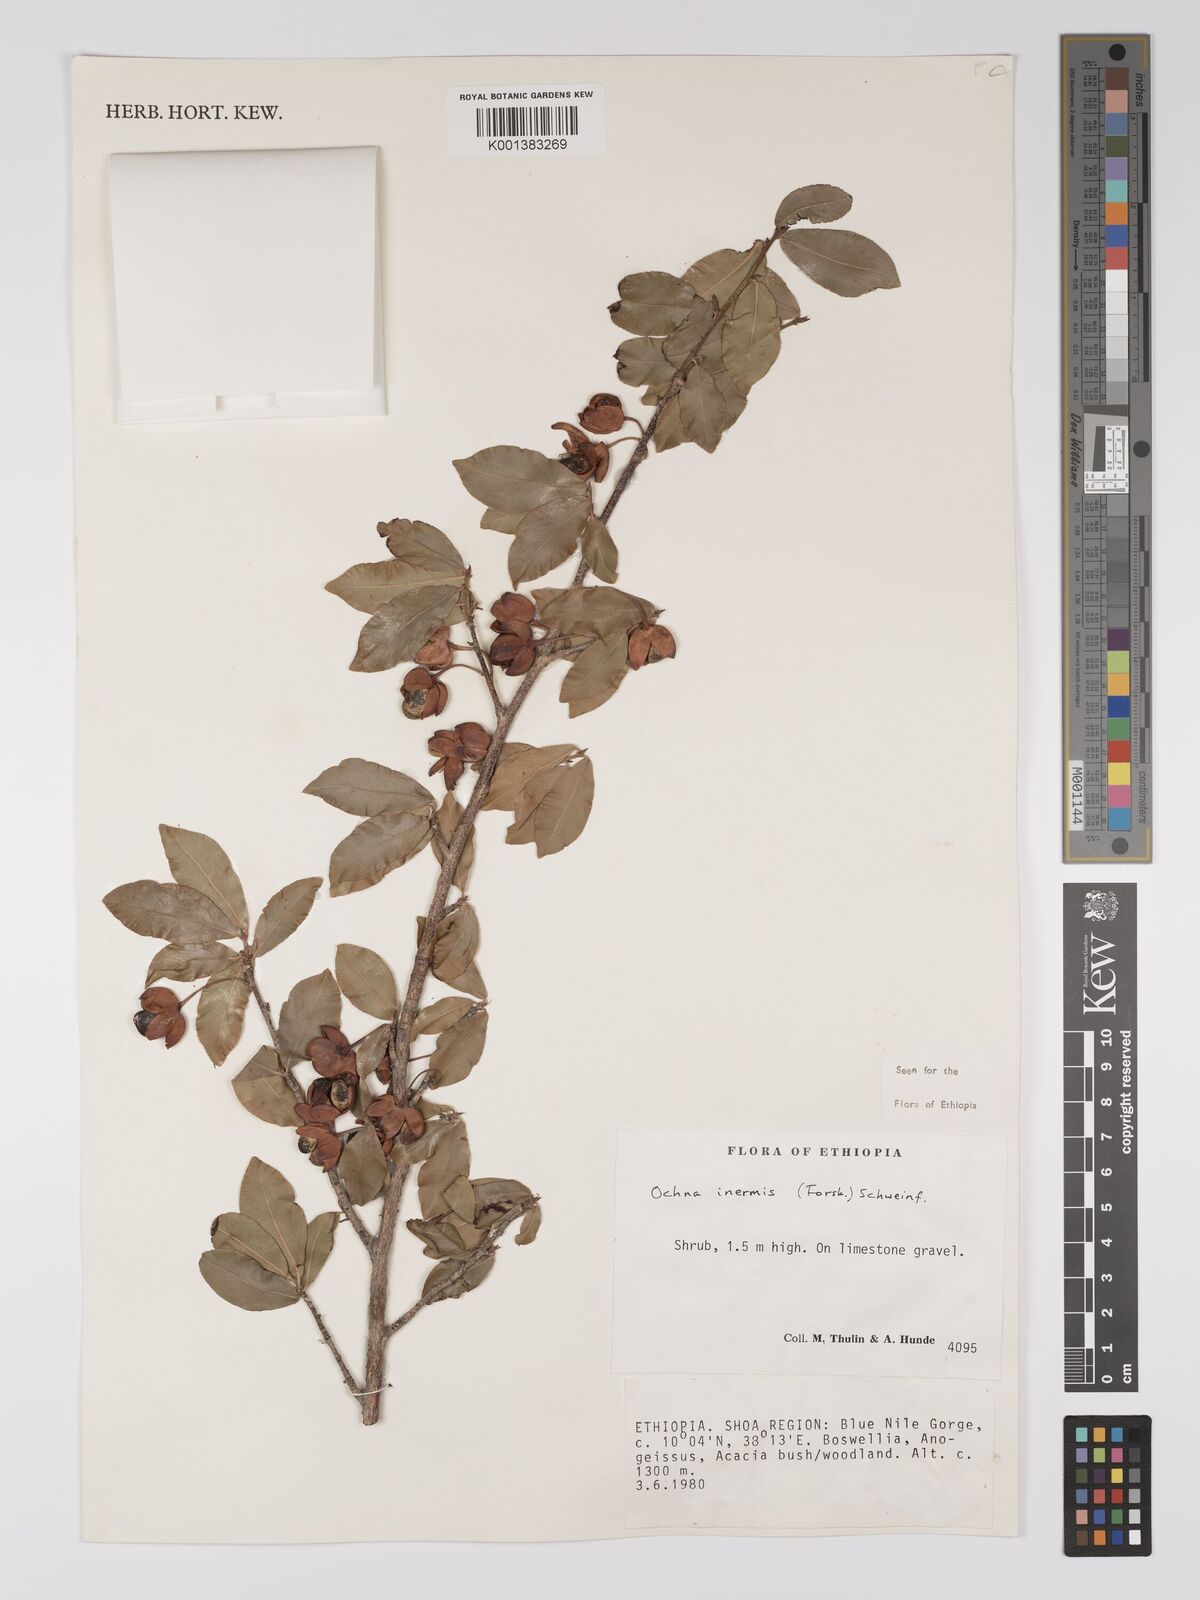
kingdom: Plantae
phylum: Tracheophyta
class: Magnoliopsida
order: Malpighiales
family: Ochnaceae
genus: Ochna
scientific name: Ochna inermis
